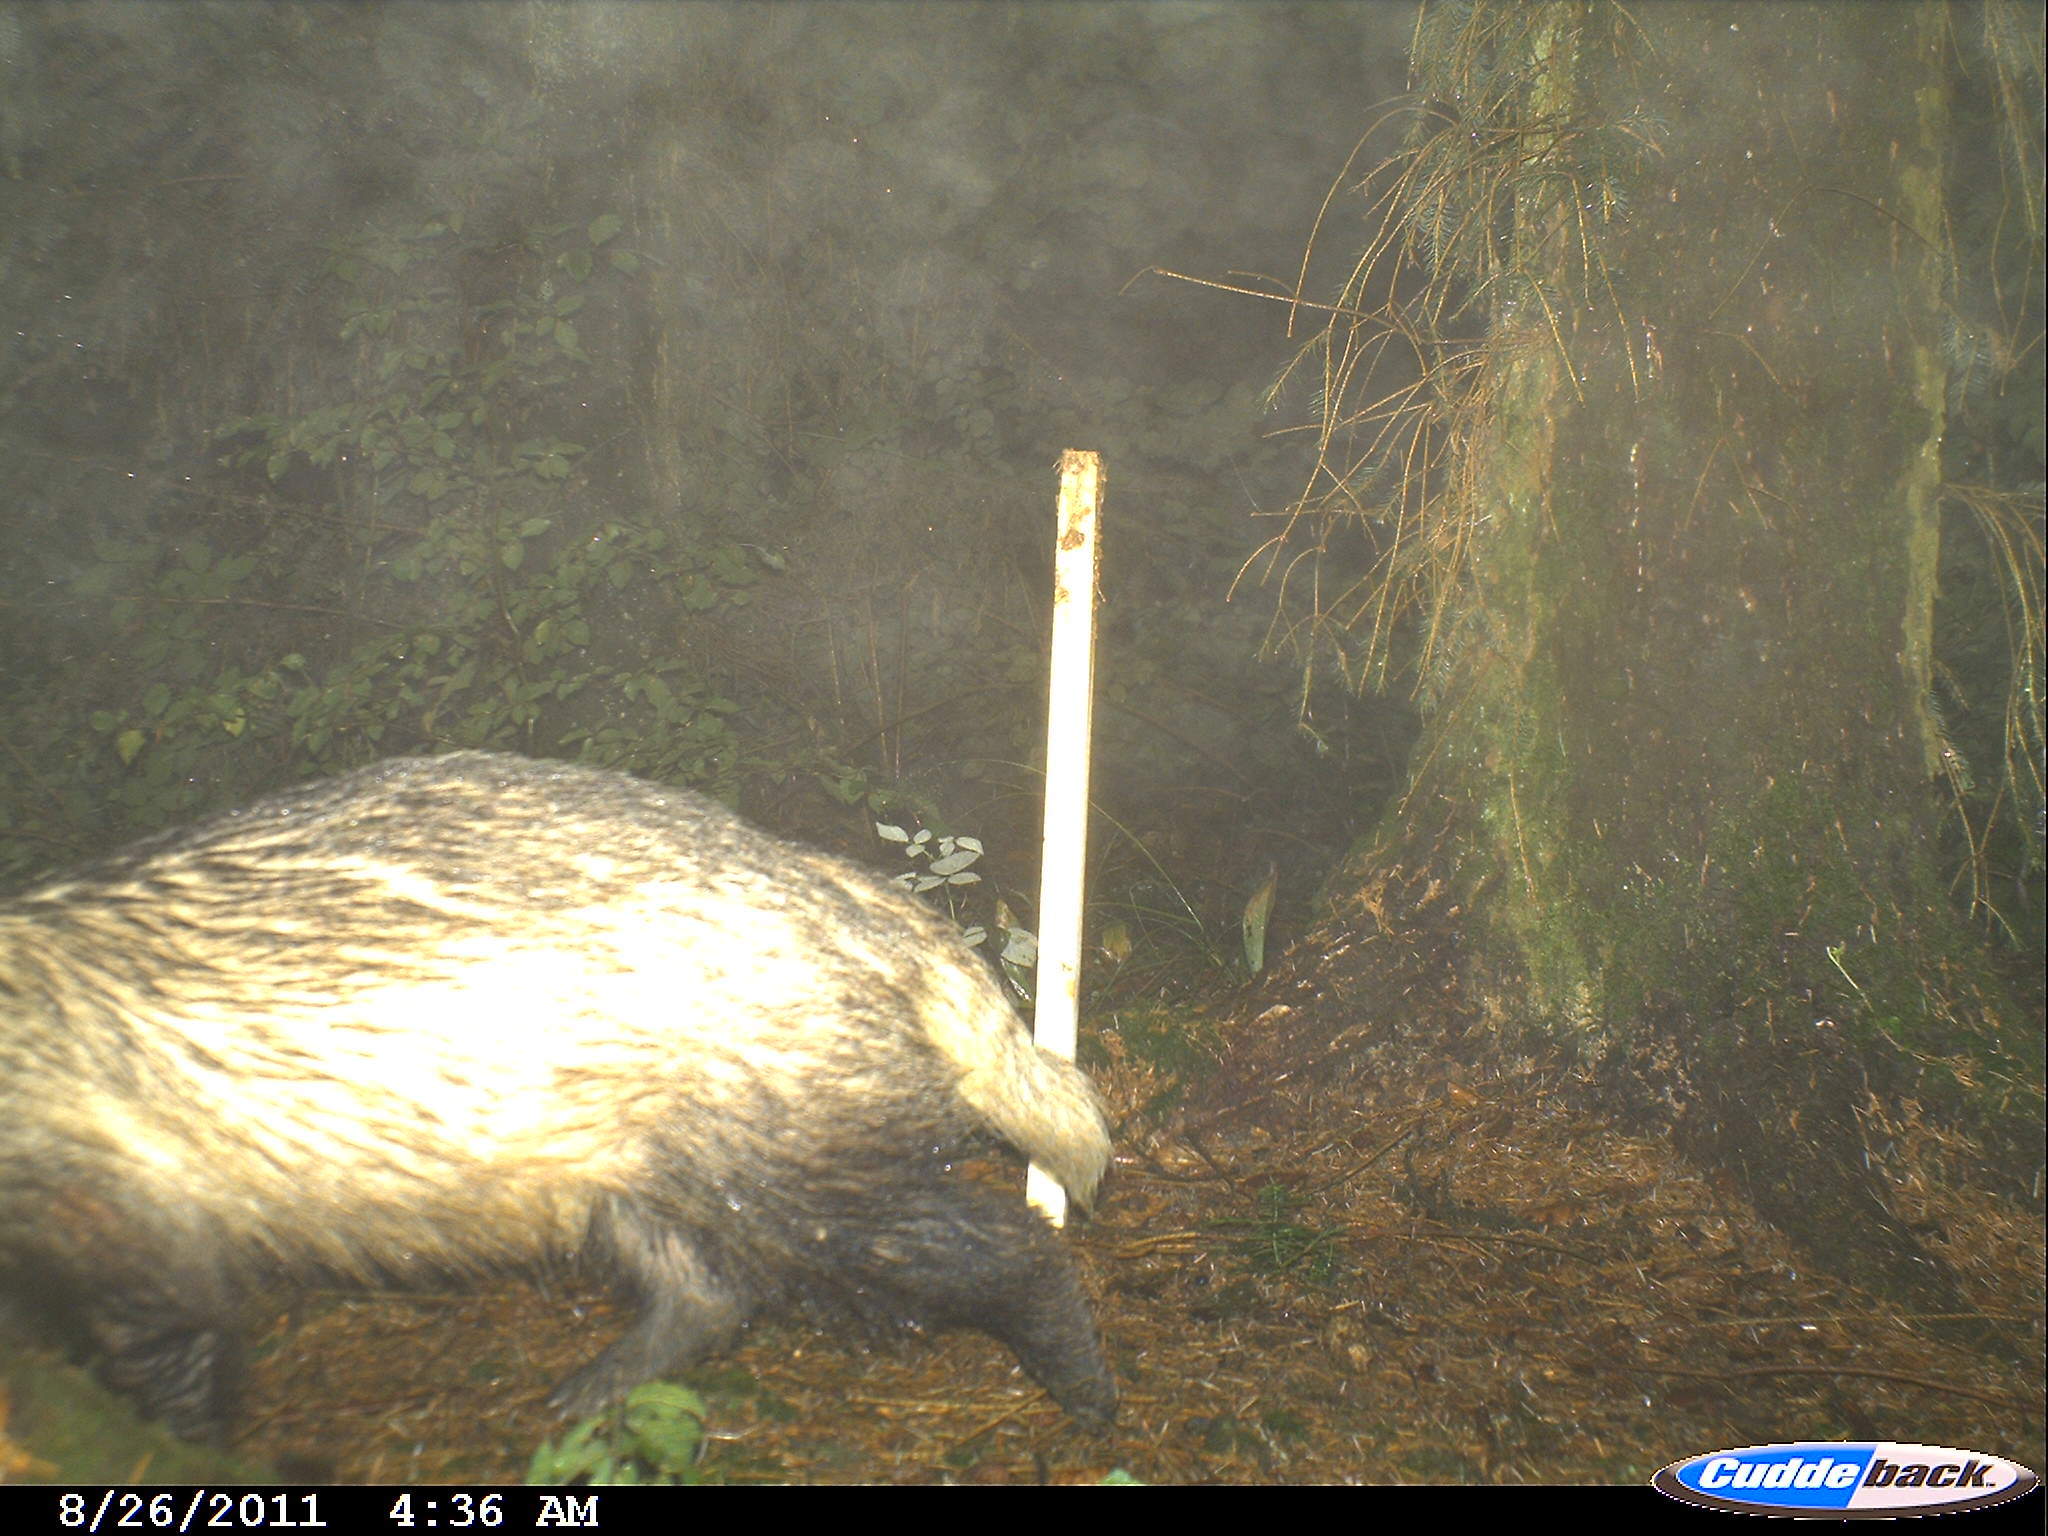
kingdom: Animalia
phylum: Chordata
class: Mammalia
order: Carnivora
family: Mustelidae
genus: Meles
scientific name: Meles meles
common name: Eurasian badger
